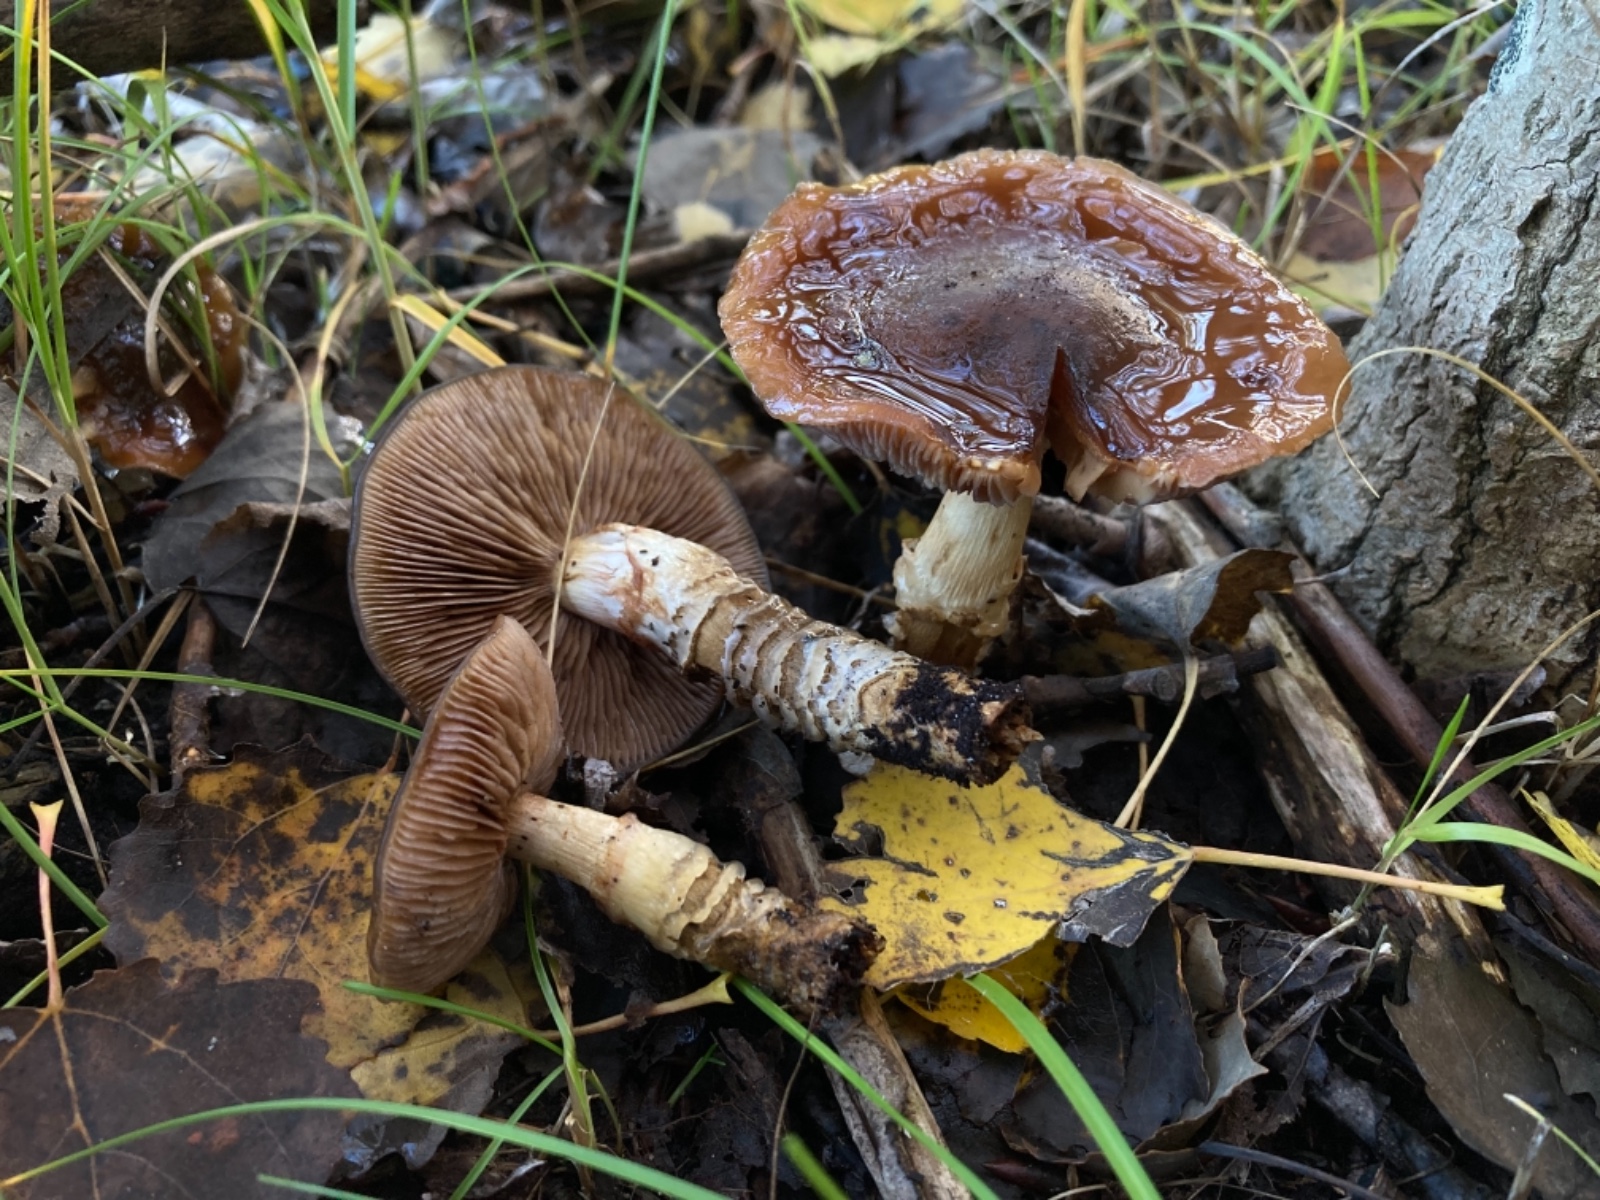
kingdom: Fungi
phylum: Basidiomycota
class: Agaricomycetes
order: Agaricales
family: Cortinariaceae
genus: Cortinarius
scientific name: Cortinarius trivialis
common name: brunslimet slørhat
